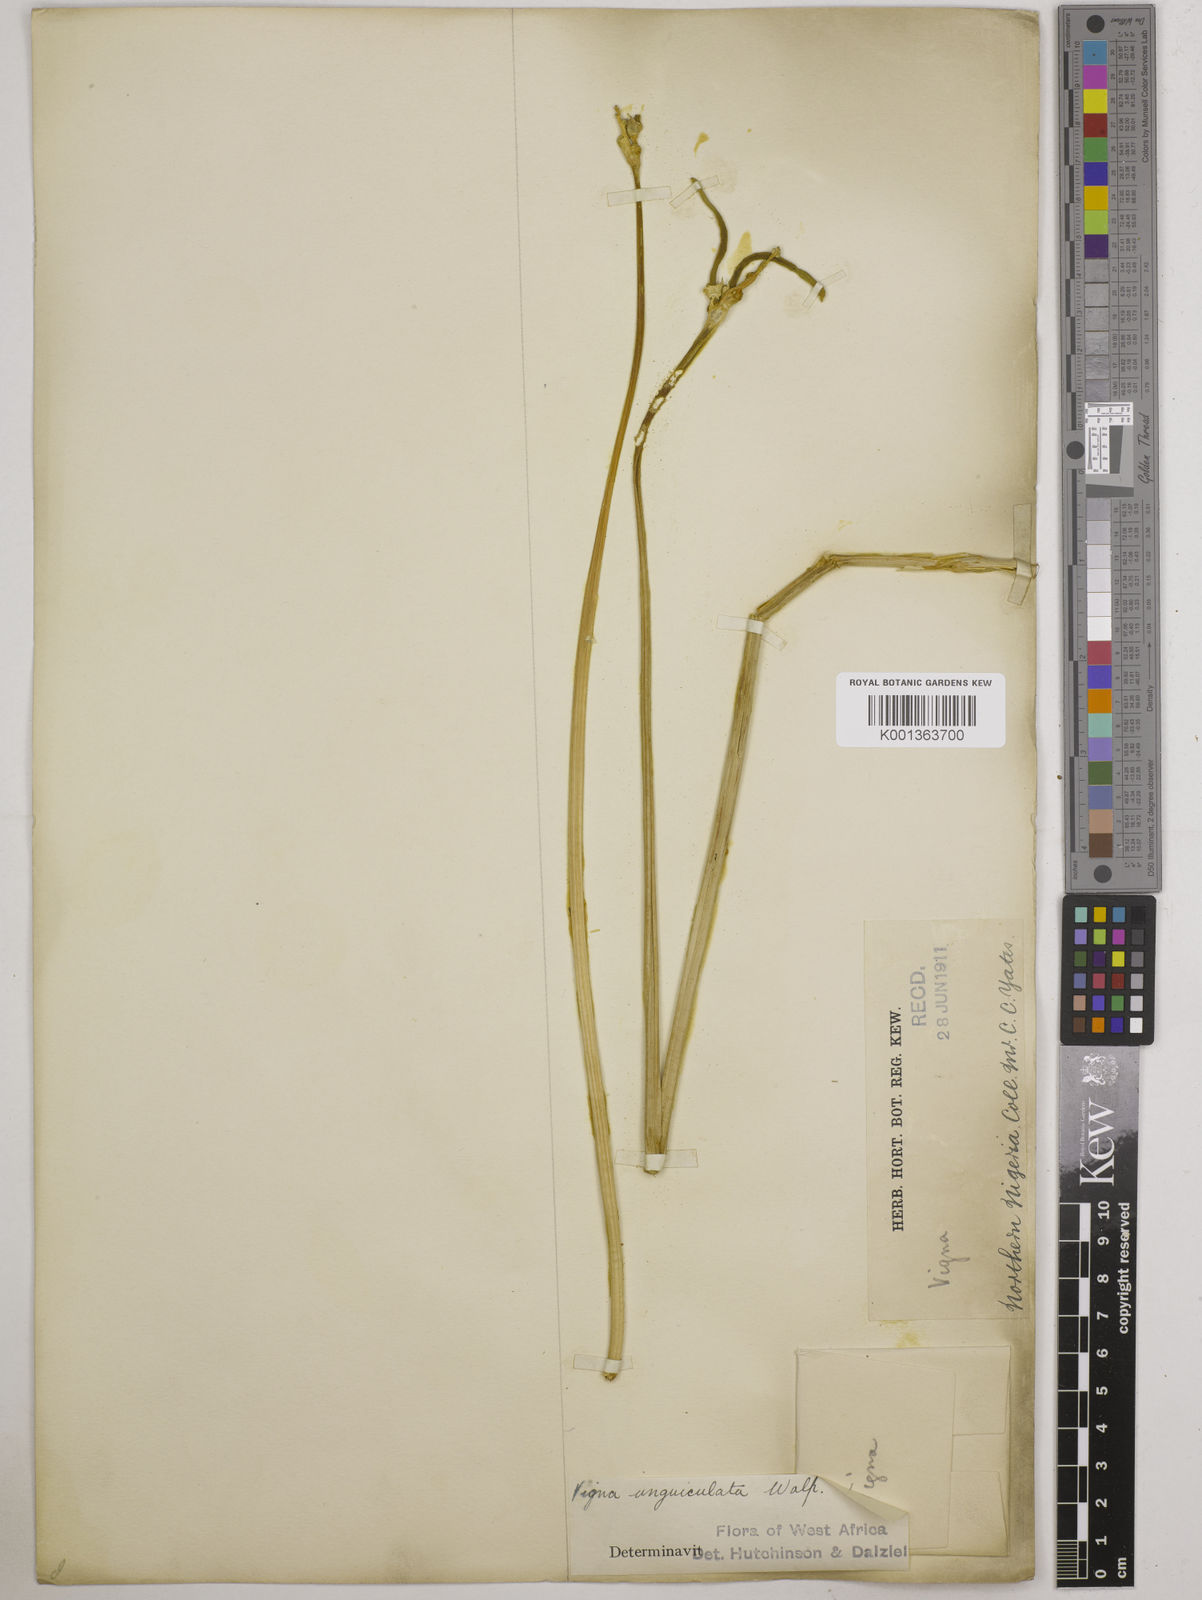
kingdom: Plantae
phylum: Tracheophyta
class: Magnoliopsida
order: Fabales
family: Fabaceae
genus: Vigna
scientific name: Vigna unguiculata
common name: Cowpea
